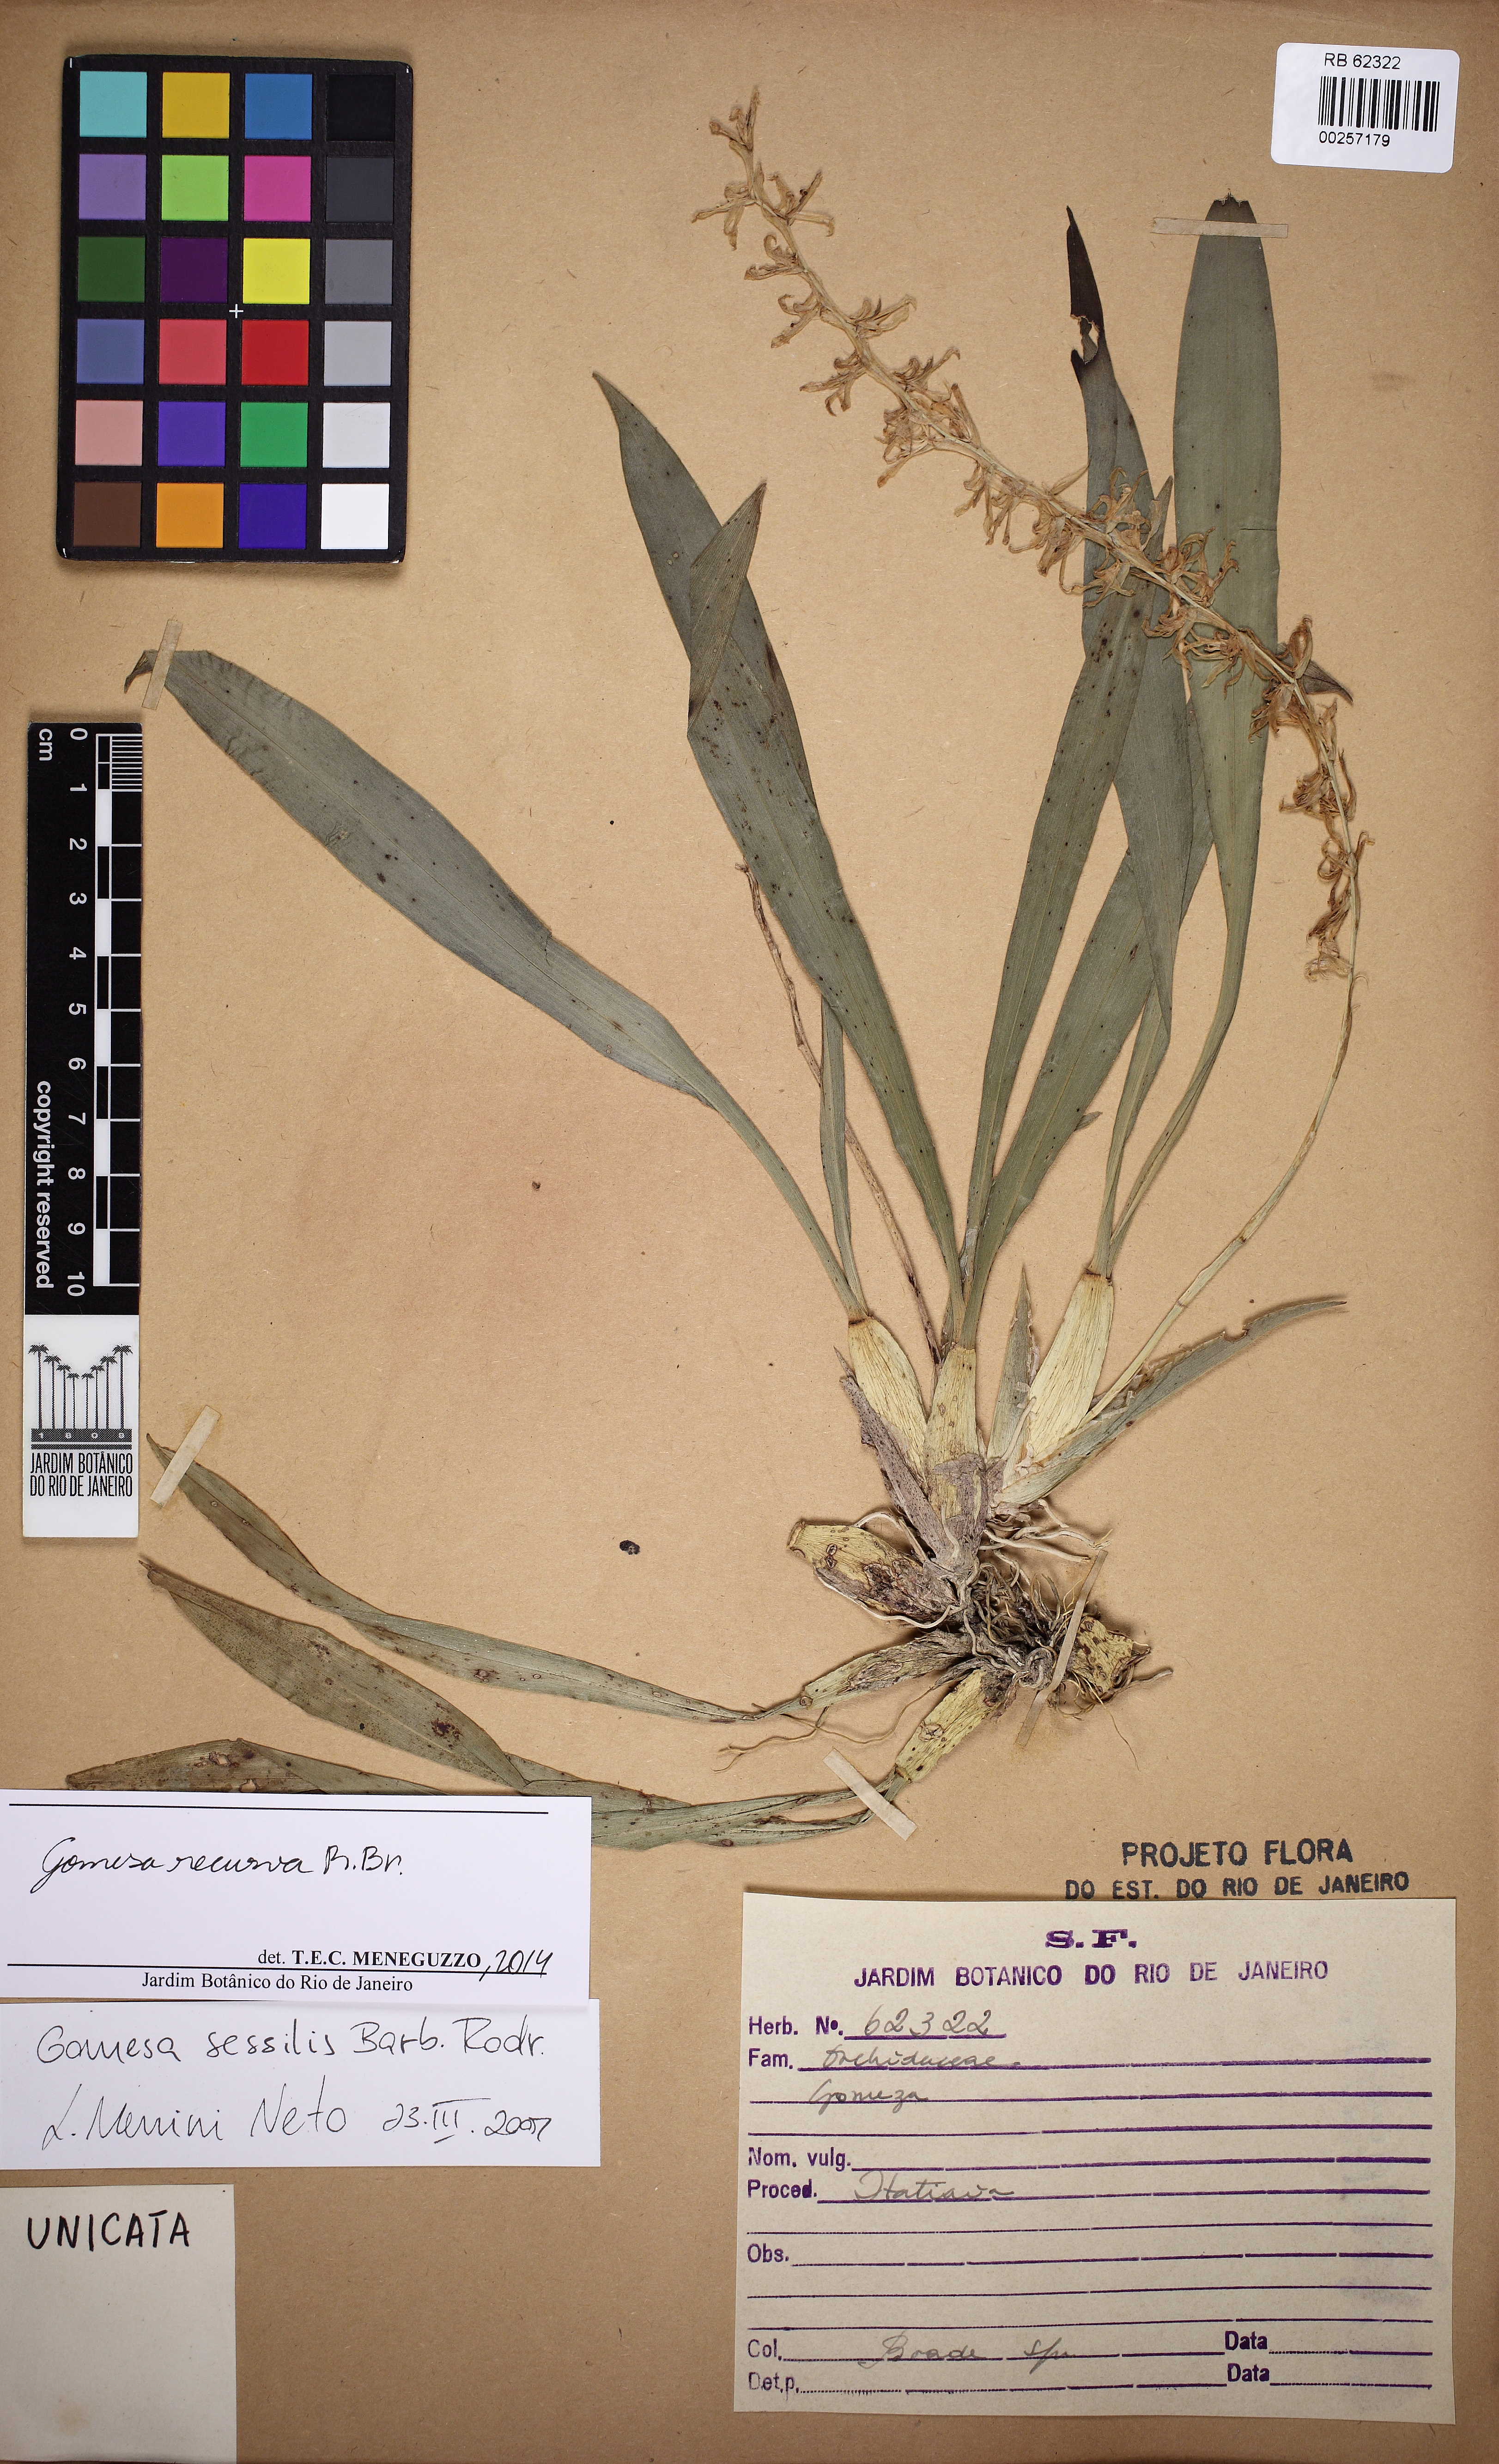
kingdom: Plantae
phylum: Tracheophyta
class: Liliopsida
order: Asparagales
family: Orchidaceae
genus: Gomesa
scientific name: Gomesa recurva
